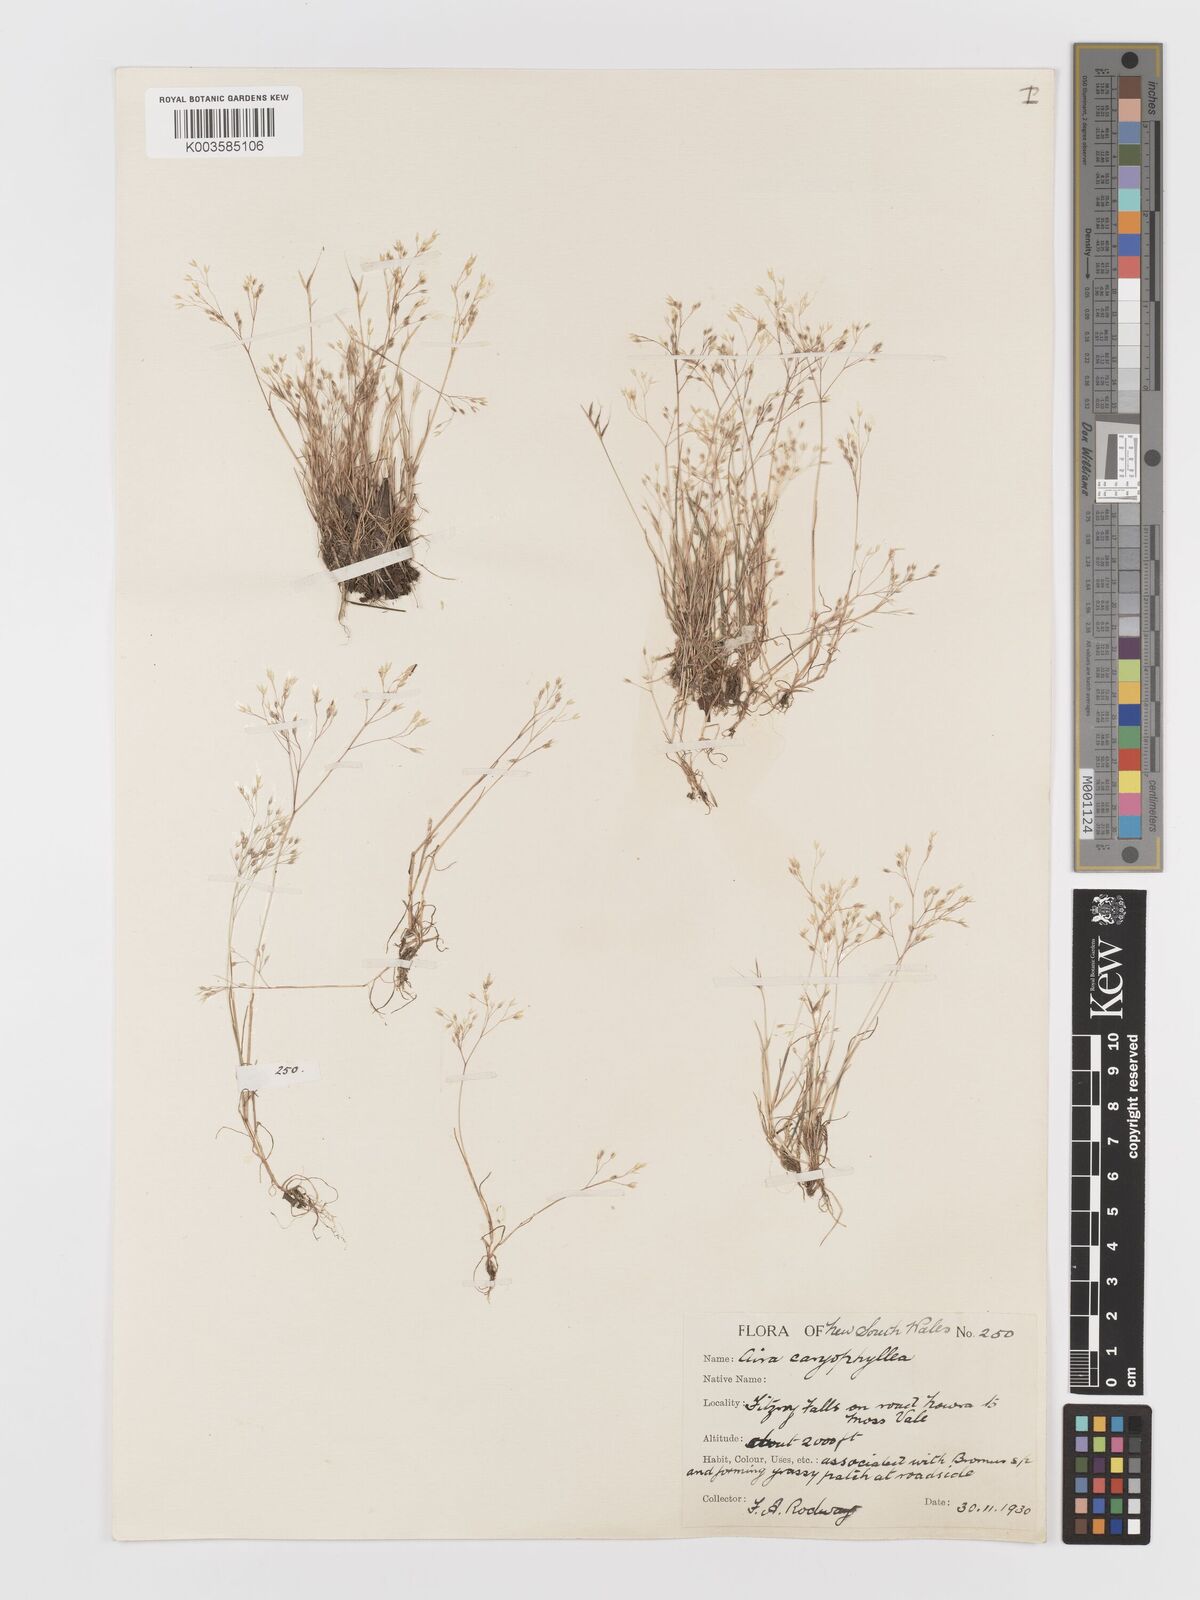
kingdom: Plantae
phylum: Tracheophyta
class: Liliopsida
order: Poales
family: Poaceae
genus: Aira
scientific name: Aira caryophyllea
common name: Silver hairgrass
